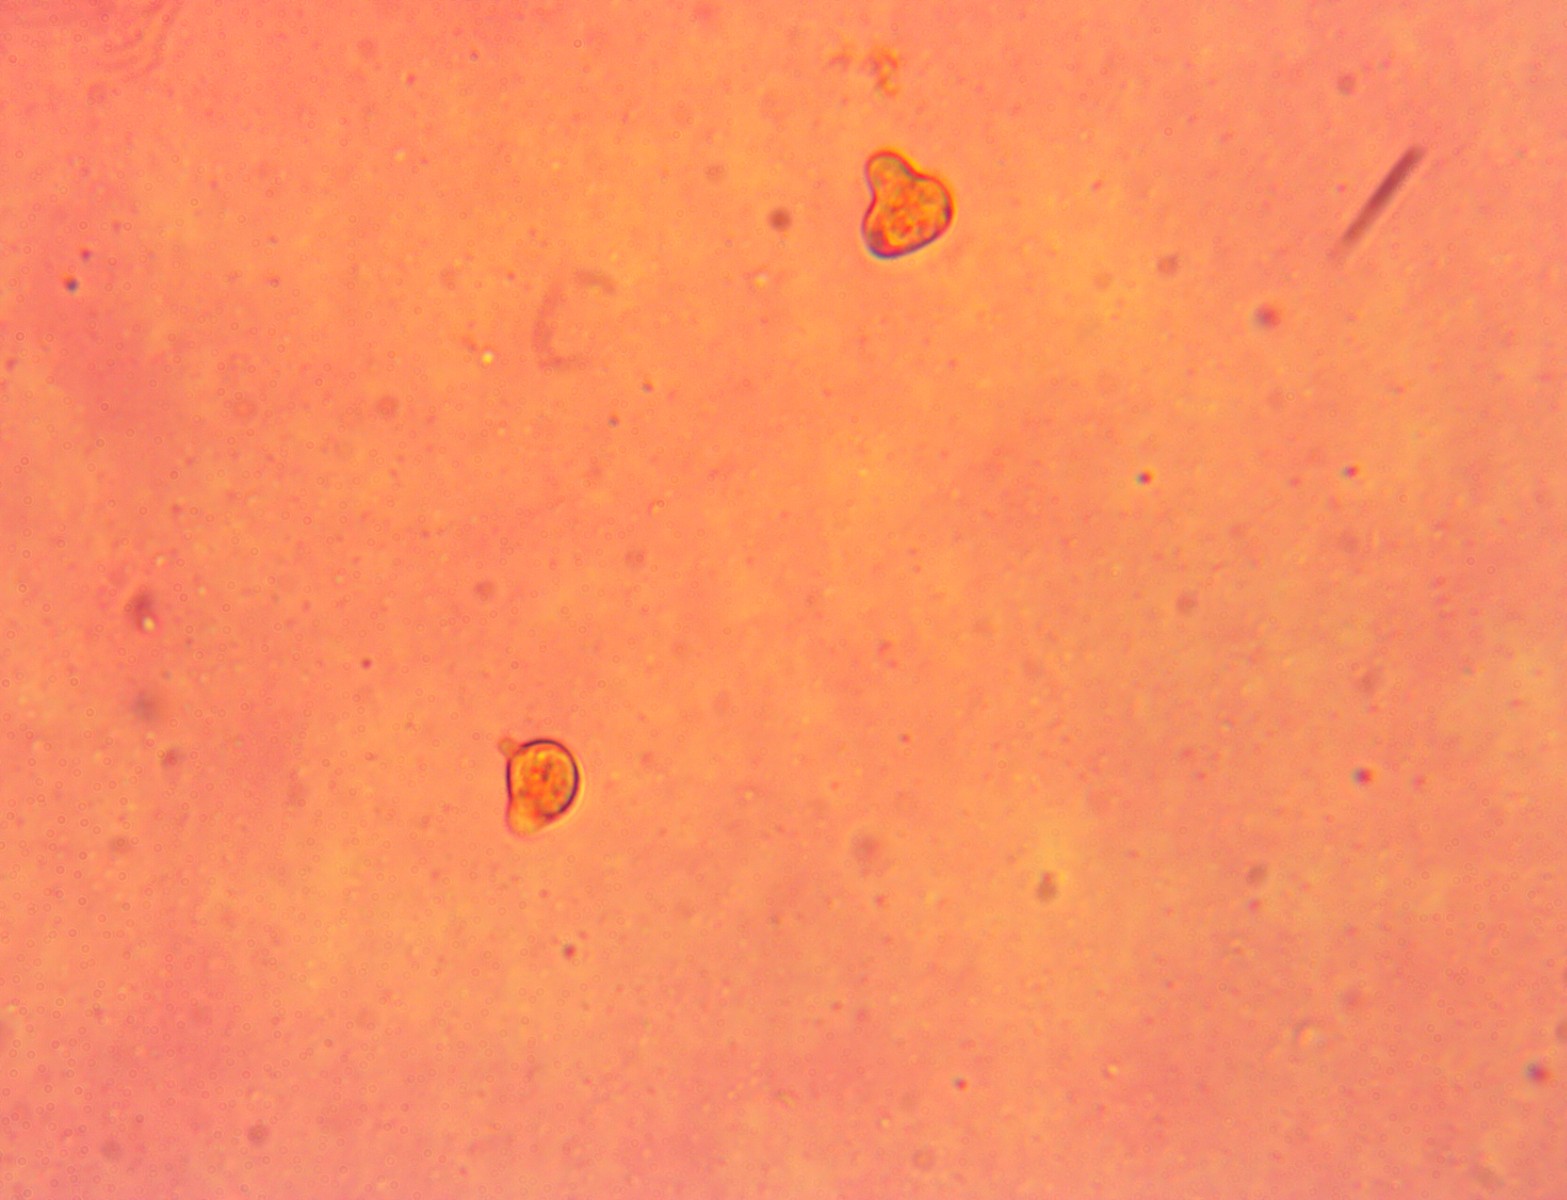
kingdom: Fungi
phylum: Basidiomycota
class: Agaricomycetes
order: Agaricales
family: Clavariaceae
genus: Clavulinopsis
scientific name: Clavulinopsis laeticolor
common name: flamme-køllesvamp
